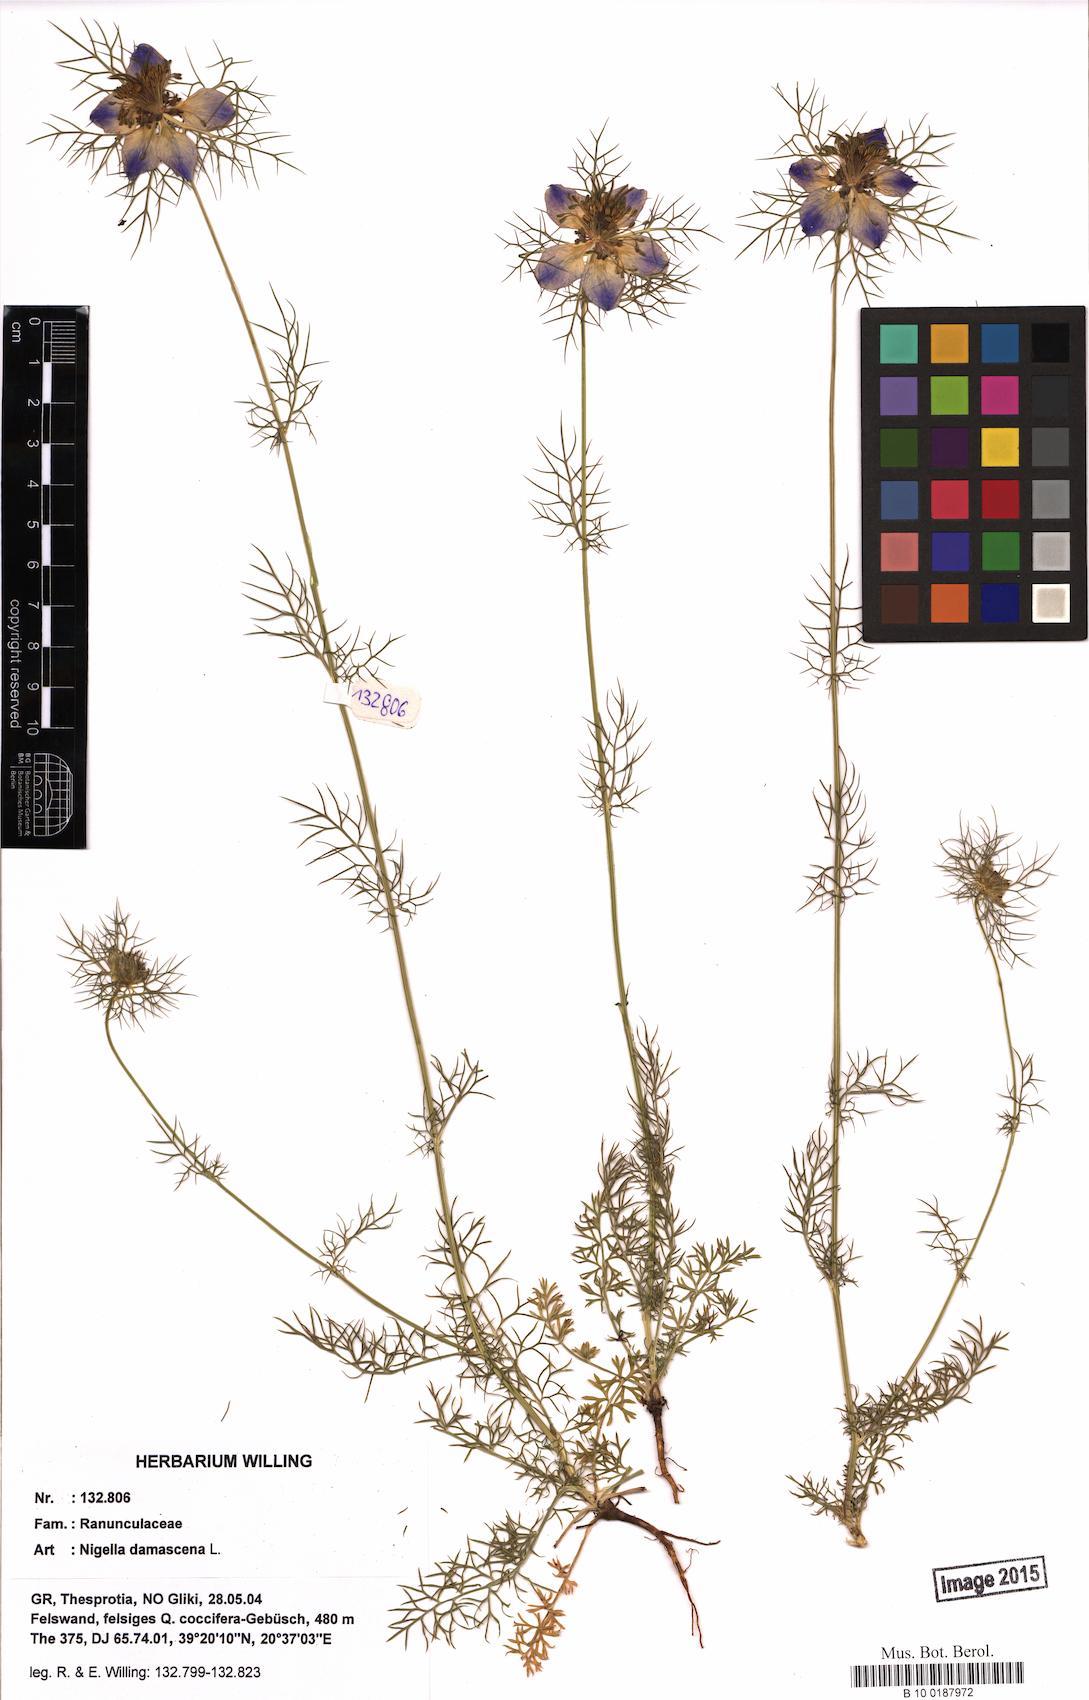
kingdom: Plantae
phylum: Tracheophyta
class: Magnoliopsida
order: Ranunculales
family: Ranunculaceae
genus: Nigella
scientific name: Nigella damascena
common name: Love-in-a-mist
